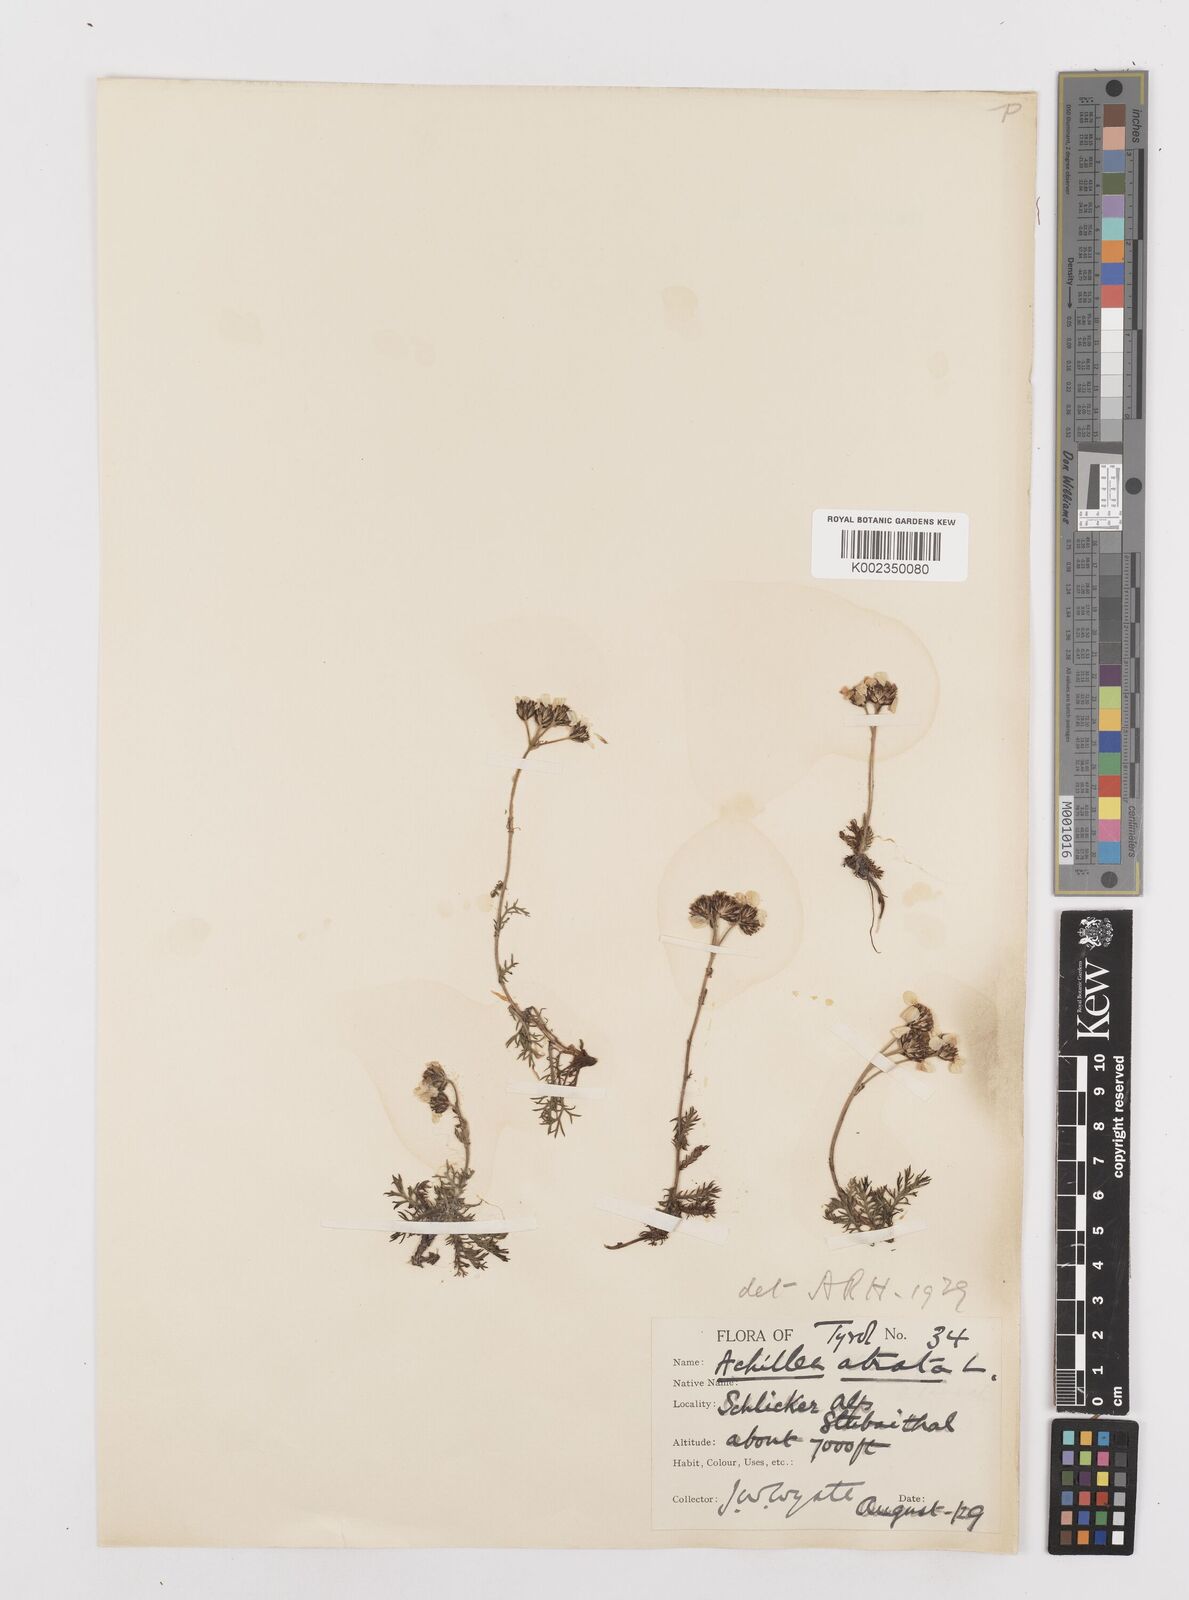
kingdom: Plantae
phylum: Tracheophyta
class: Magnoliopsida
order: Asterales
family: Asteraceae
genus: Achillea
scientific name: Achillea atrata
